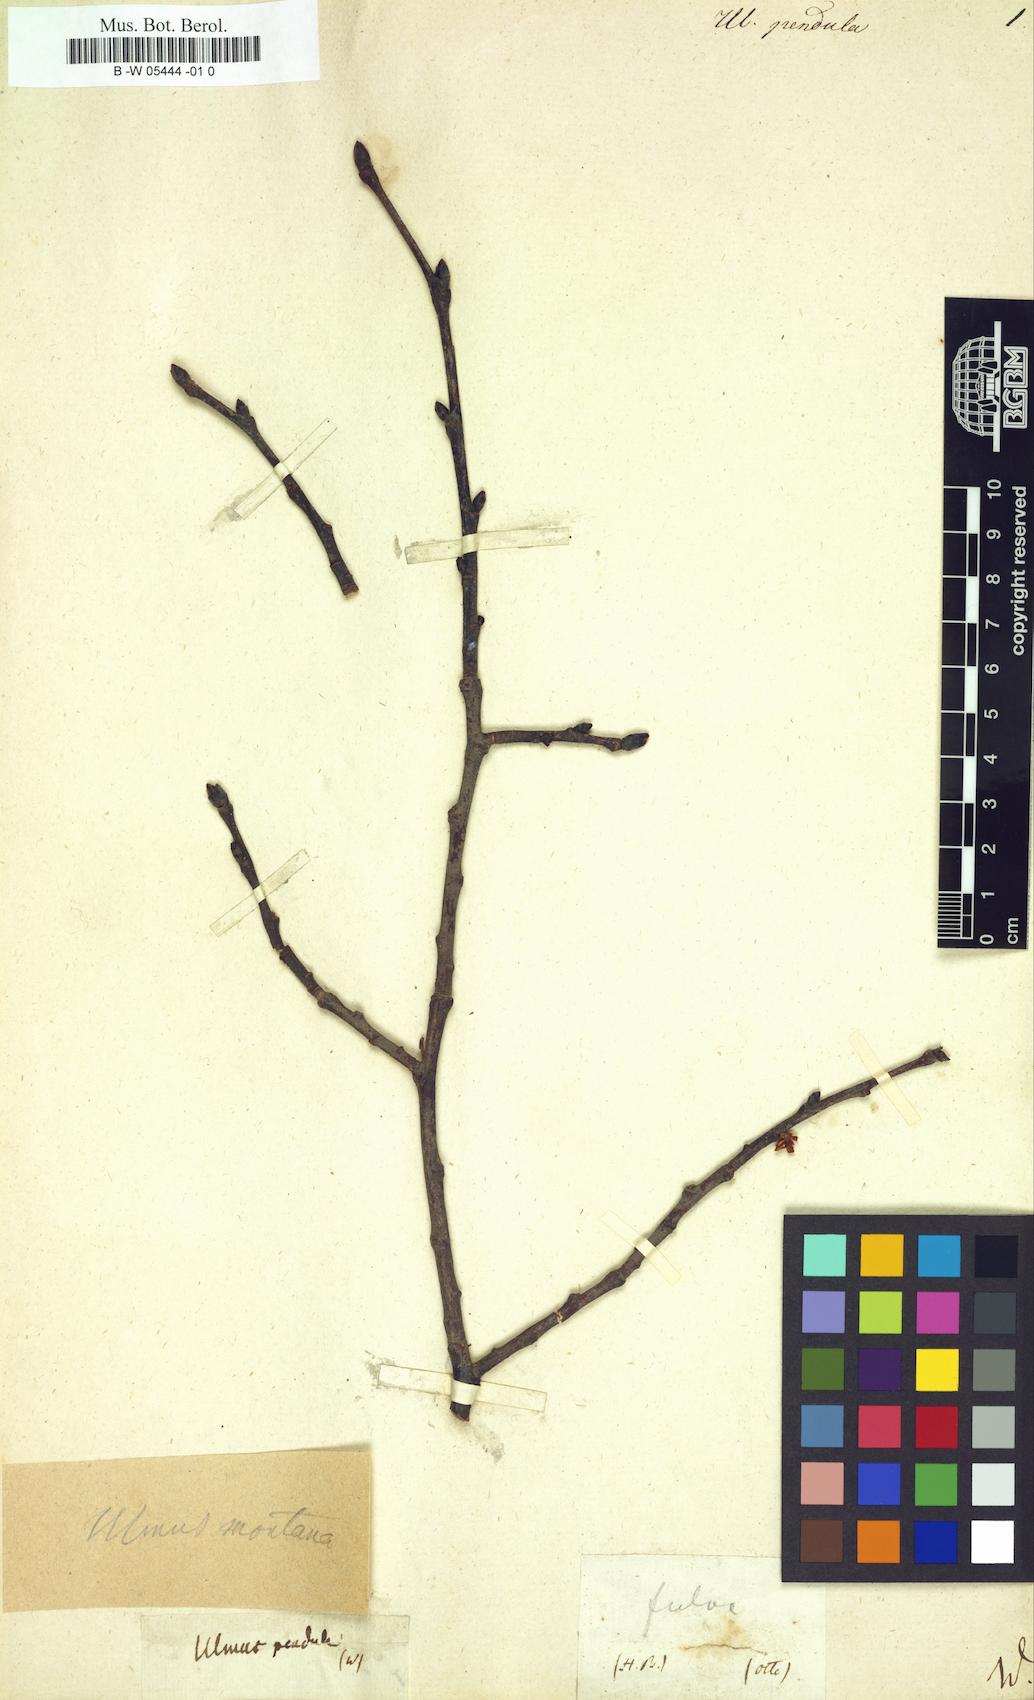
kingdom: Plantae
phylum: Tracheophyta
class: Magnoliopsida
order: Rosales
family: Ulmaceae
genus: Ulmus
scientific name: Ulmus pendula
